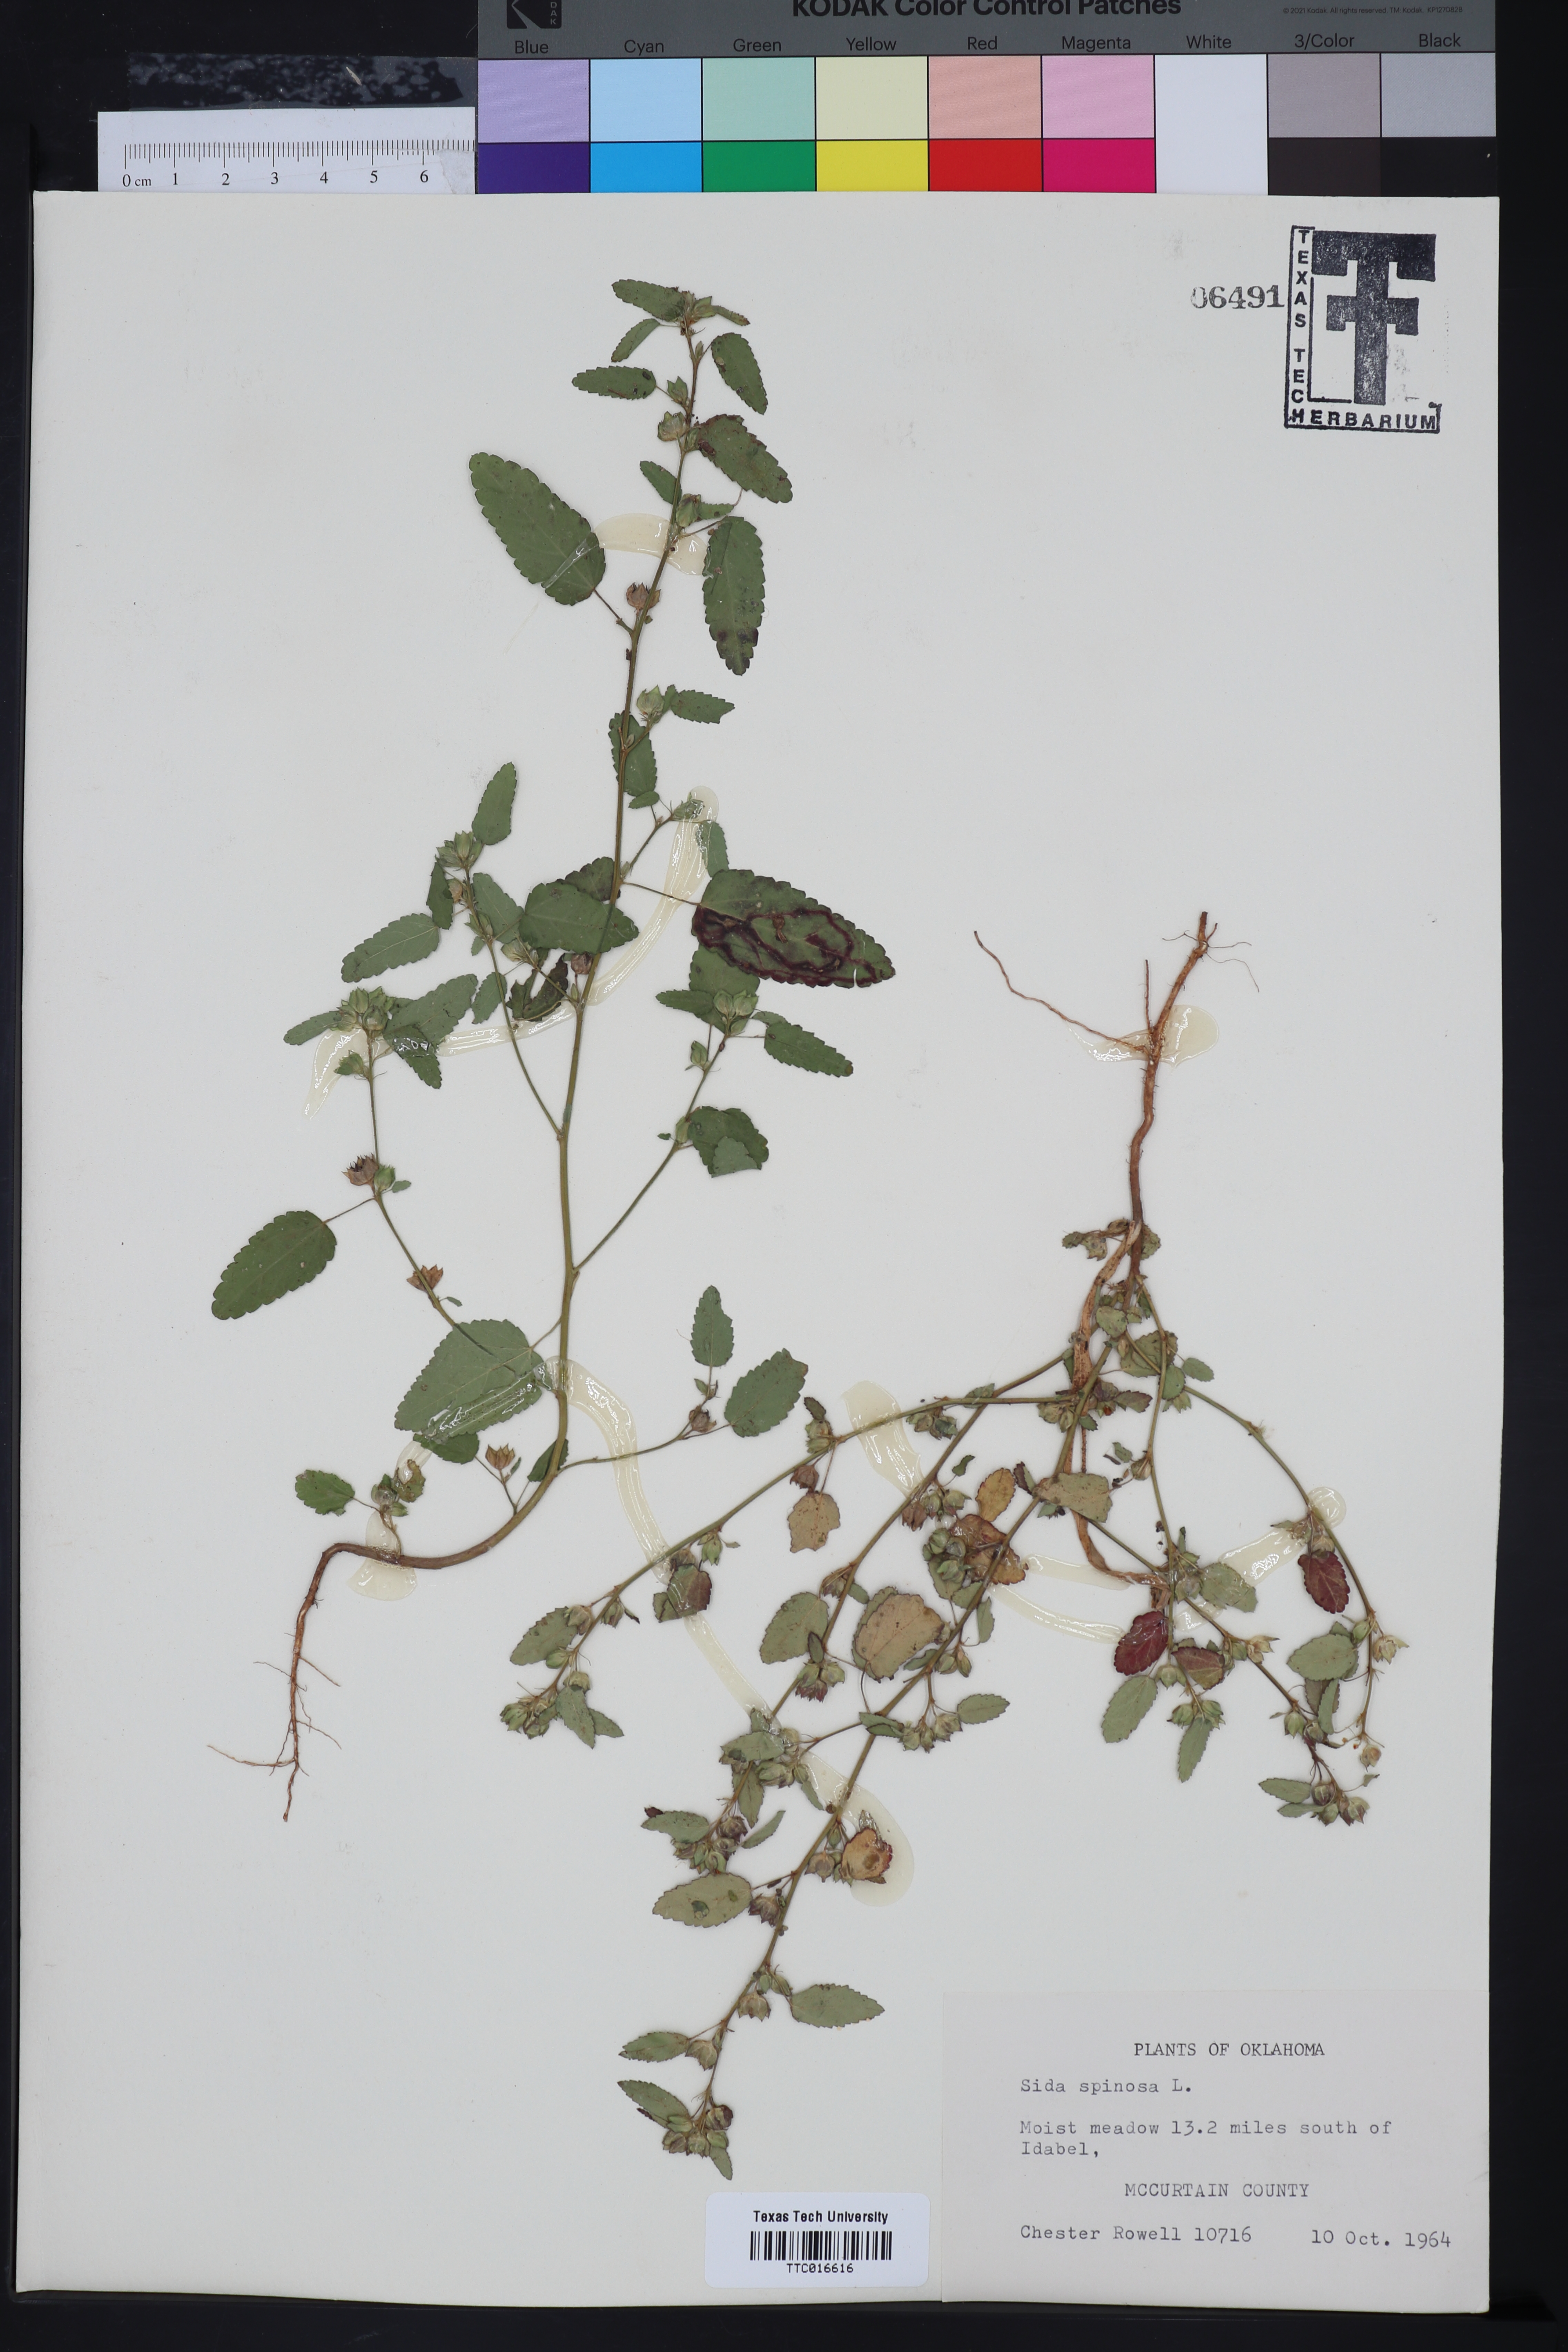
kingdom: Plantae
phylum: Tracheophyta
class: Magnoliopsida
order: Malvales
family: Malvaceae
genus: Sida
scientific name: Sida spinosa
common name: Prickly fanpetals
